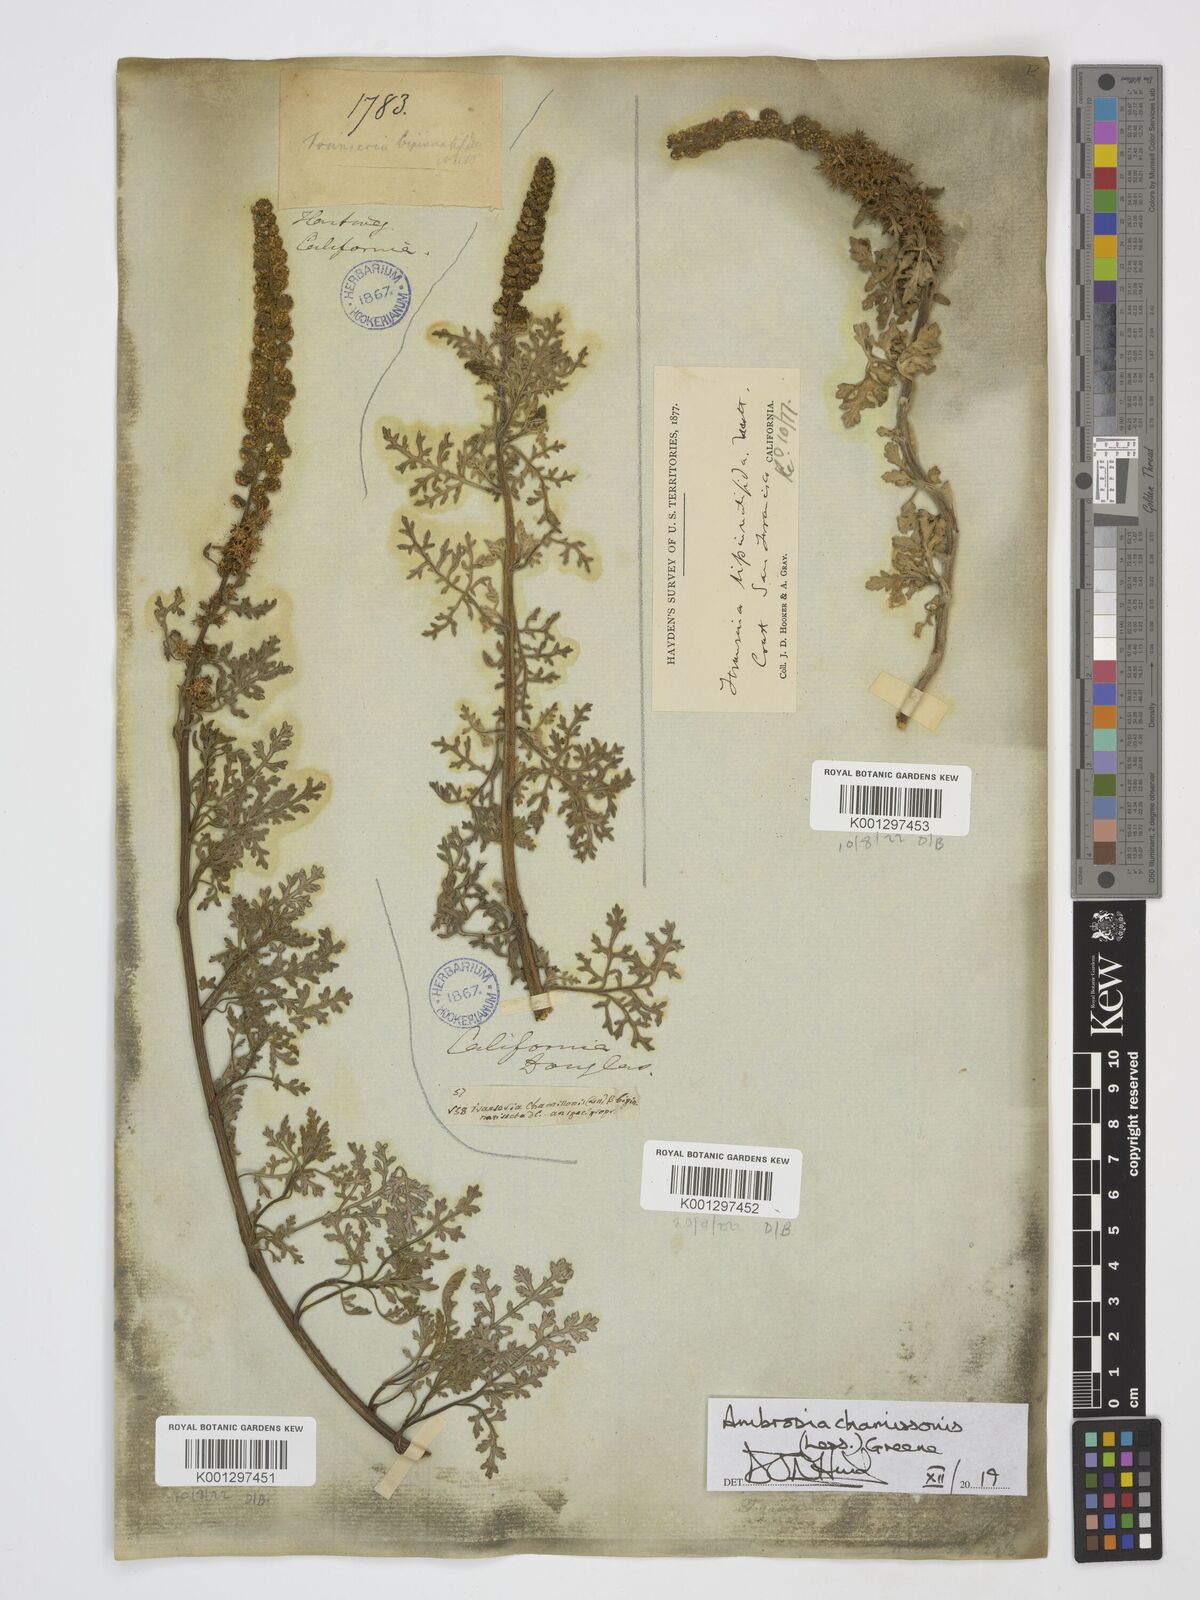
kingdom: Plantae
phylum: Tracheophyta
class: Magnoliopsida
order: Asterales
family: Asteraceae
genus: Ambrosia
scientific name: Ambrosia chamissonis
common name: Beachbur
